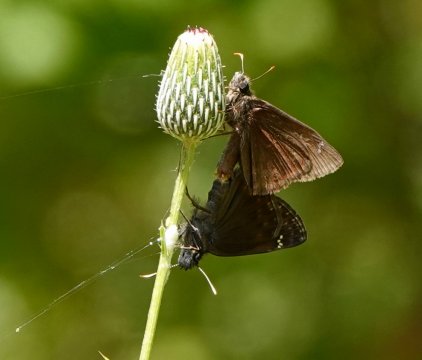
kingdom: Animalia
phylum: Arthropoda
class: Insecta
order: Lepidoptera
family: Hesperiidae
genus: Gesta
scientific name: Gesta
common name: Wild Indigo Duskywing
